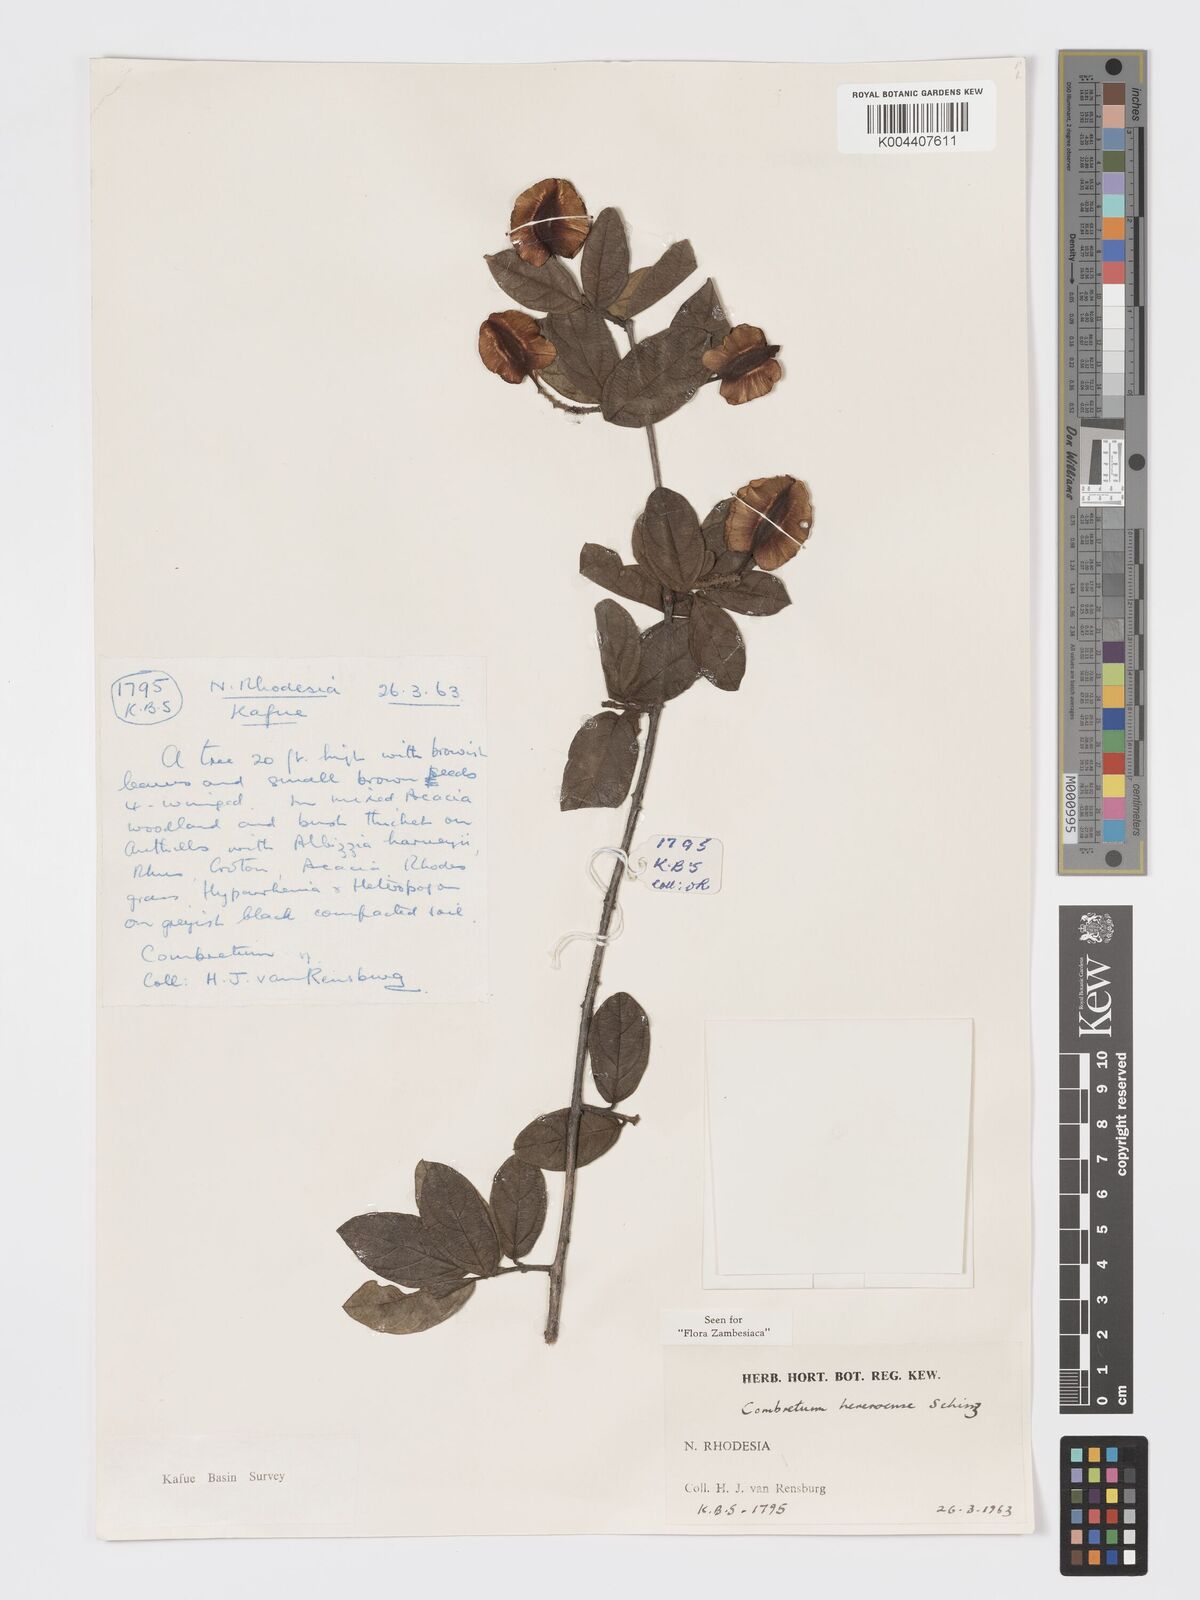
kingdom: Plantae
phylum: Tracheophyta
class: Magnoliopsida
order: Myrtales
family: Combretaceae
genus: Combretum
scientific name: Combretum hereroense
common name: Russet bushwillow
